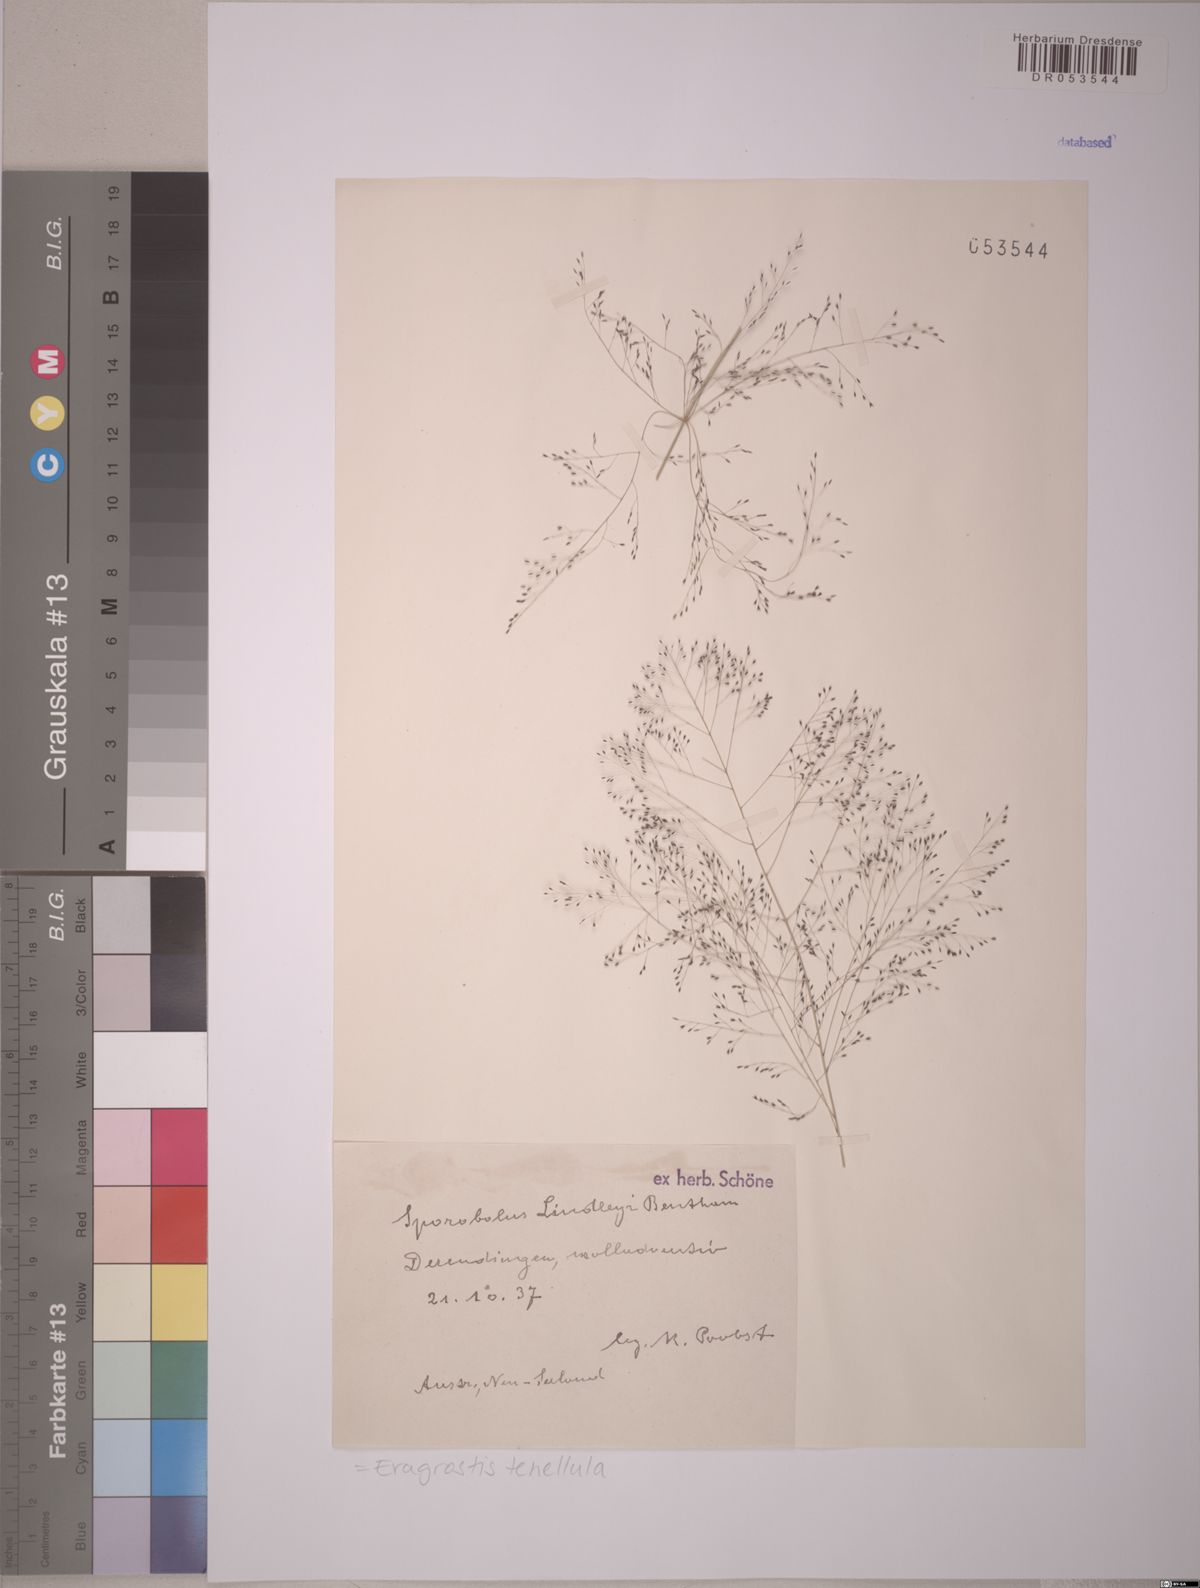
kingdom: Plantae
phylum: Tracheophyta
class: Liliopsida
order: Poales
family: Poaceae
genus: Eragrostis
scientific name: Eragrostis tenellula
